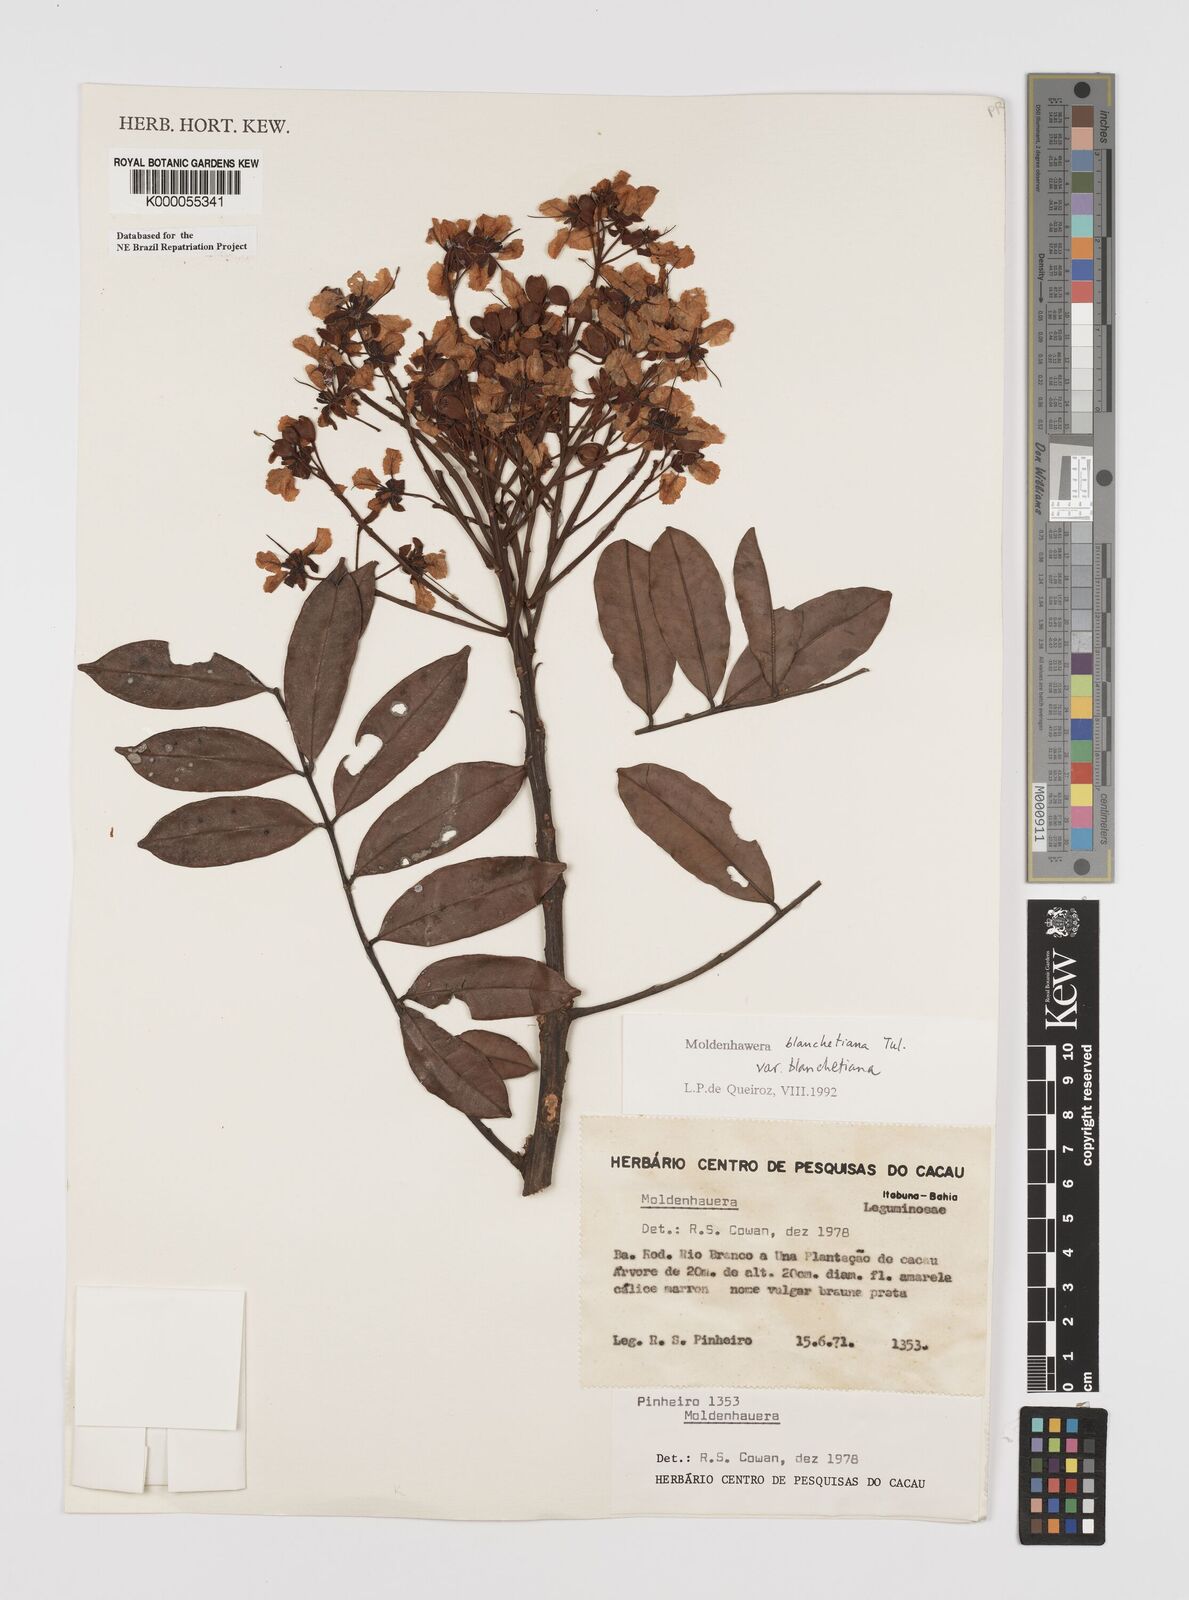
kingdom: Plantae
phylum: Tracheophyta
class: Magnoliopsida
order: Fabales
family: Fabaceae
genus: Moldenhawera
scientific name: Moldenhawera blanchetiana
